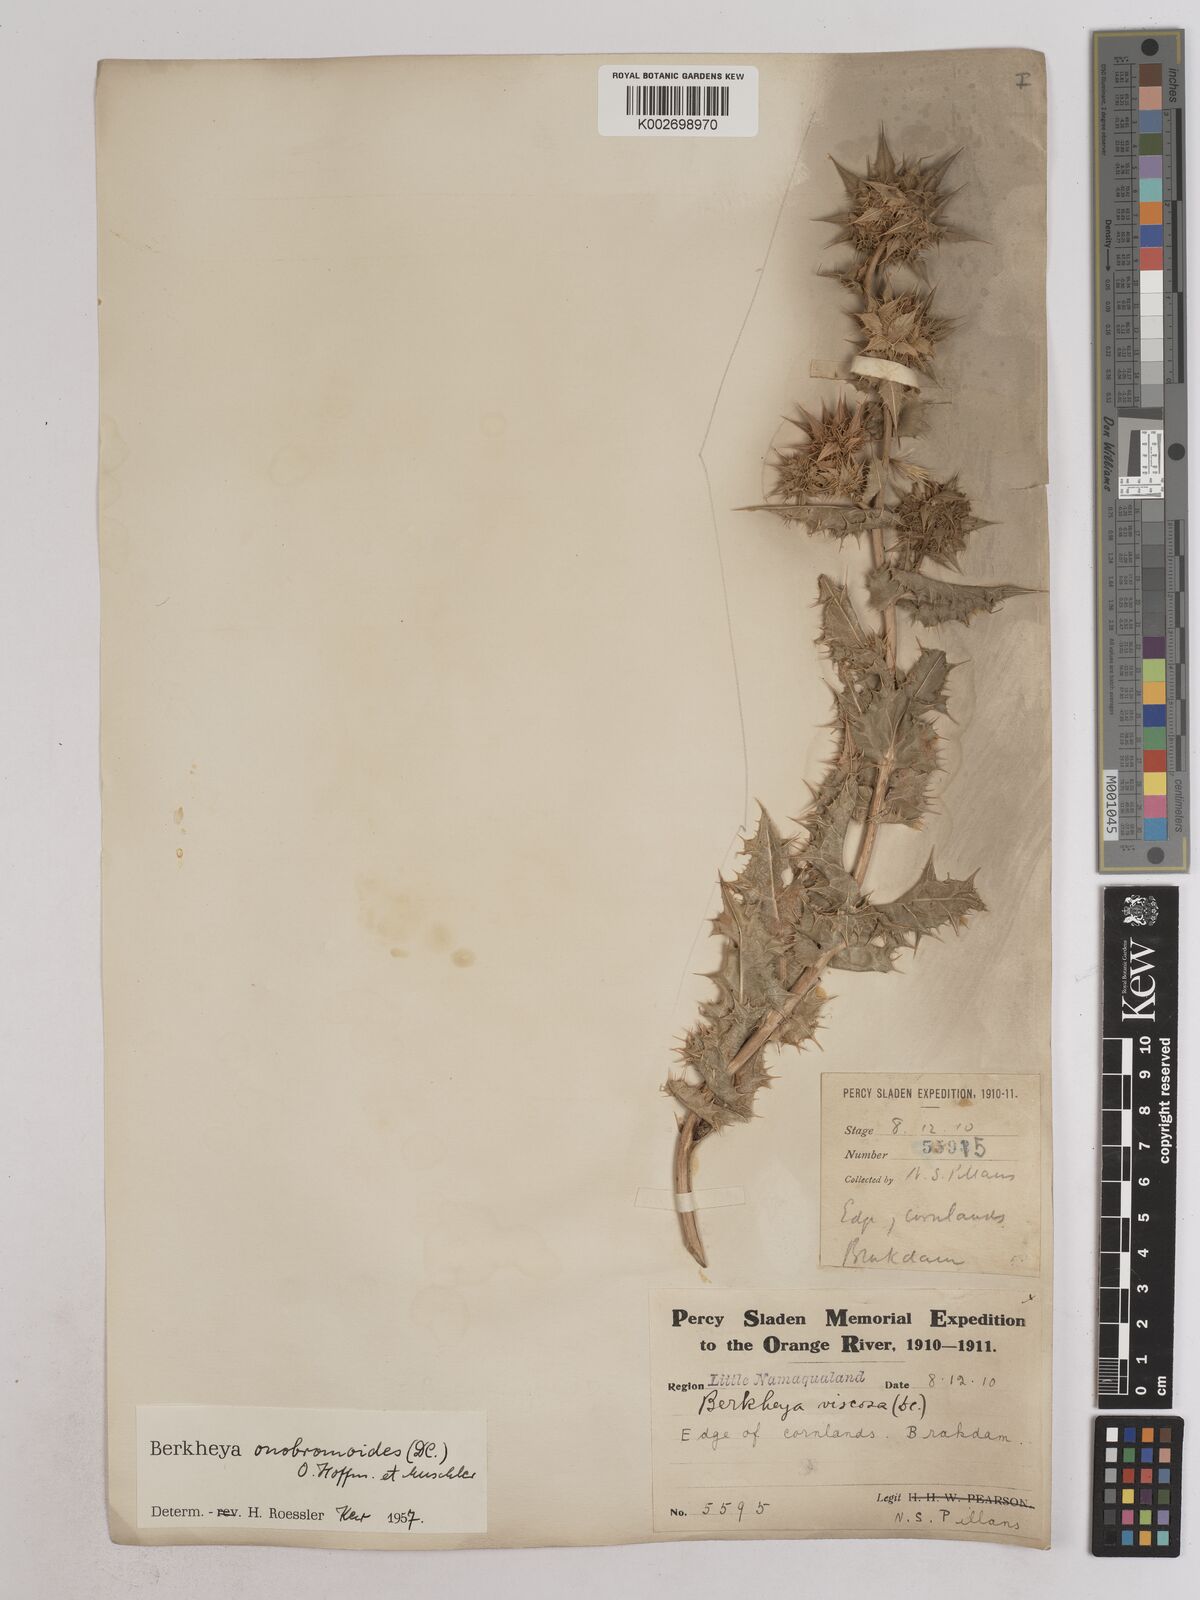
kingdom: Plantae
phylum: Tracheophyta
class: Magnoliopsida
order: Asterales
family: Asteraceae
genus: Berkheya
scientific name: Berkheya onobromoides
